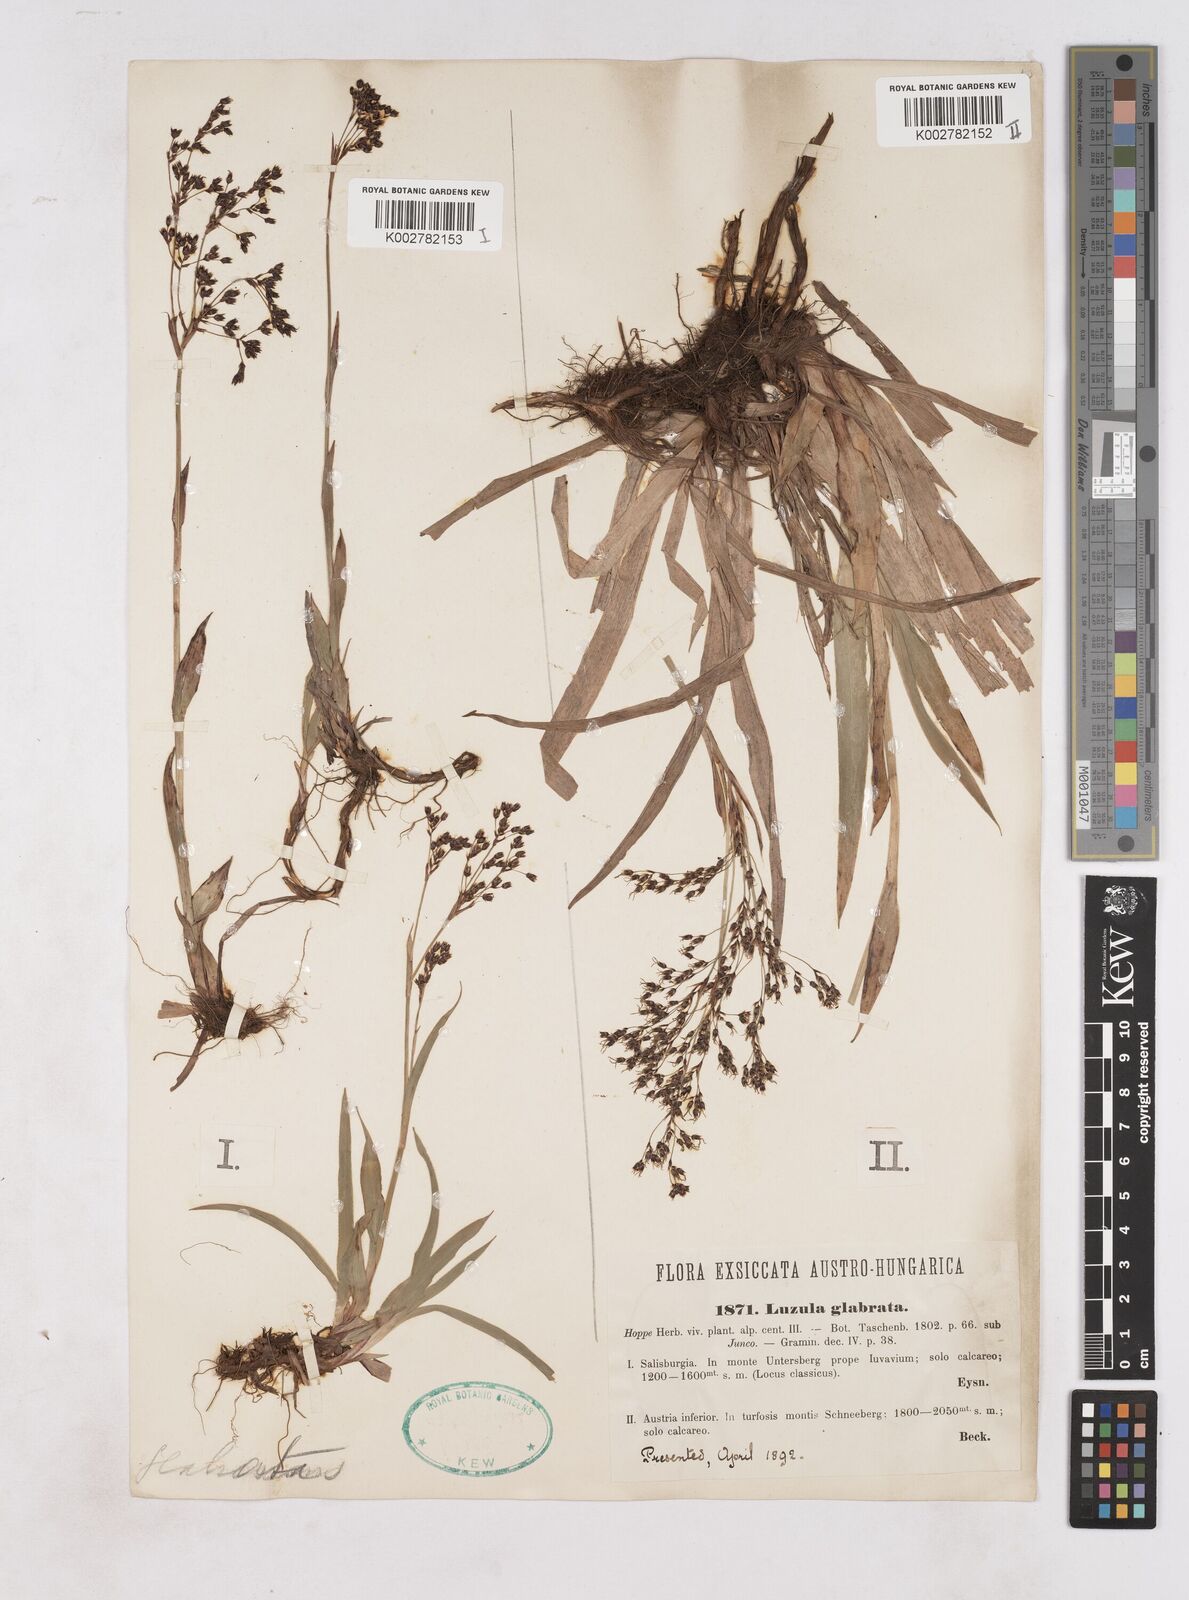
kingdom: Plantae
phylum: Tracheophyta
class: Liliopsida
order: Poales
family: Juncaceae
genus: Luzula
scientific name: Luzula glabrata
